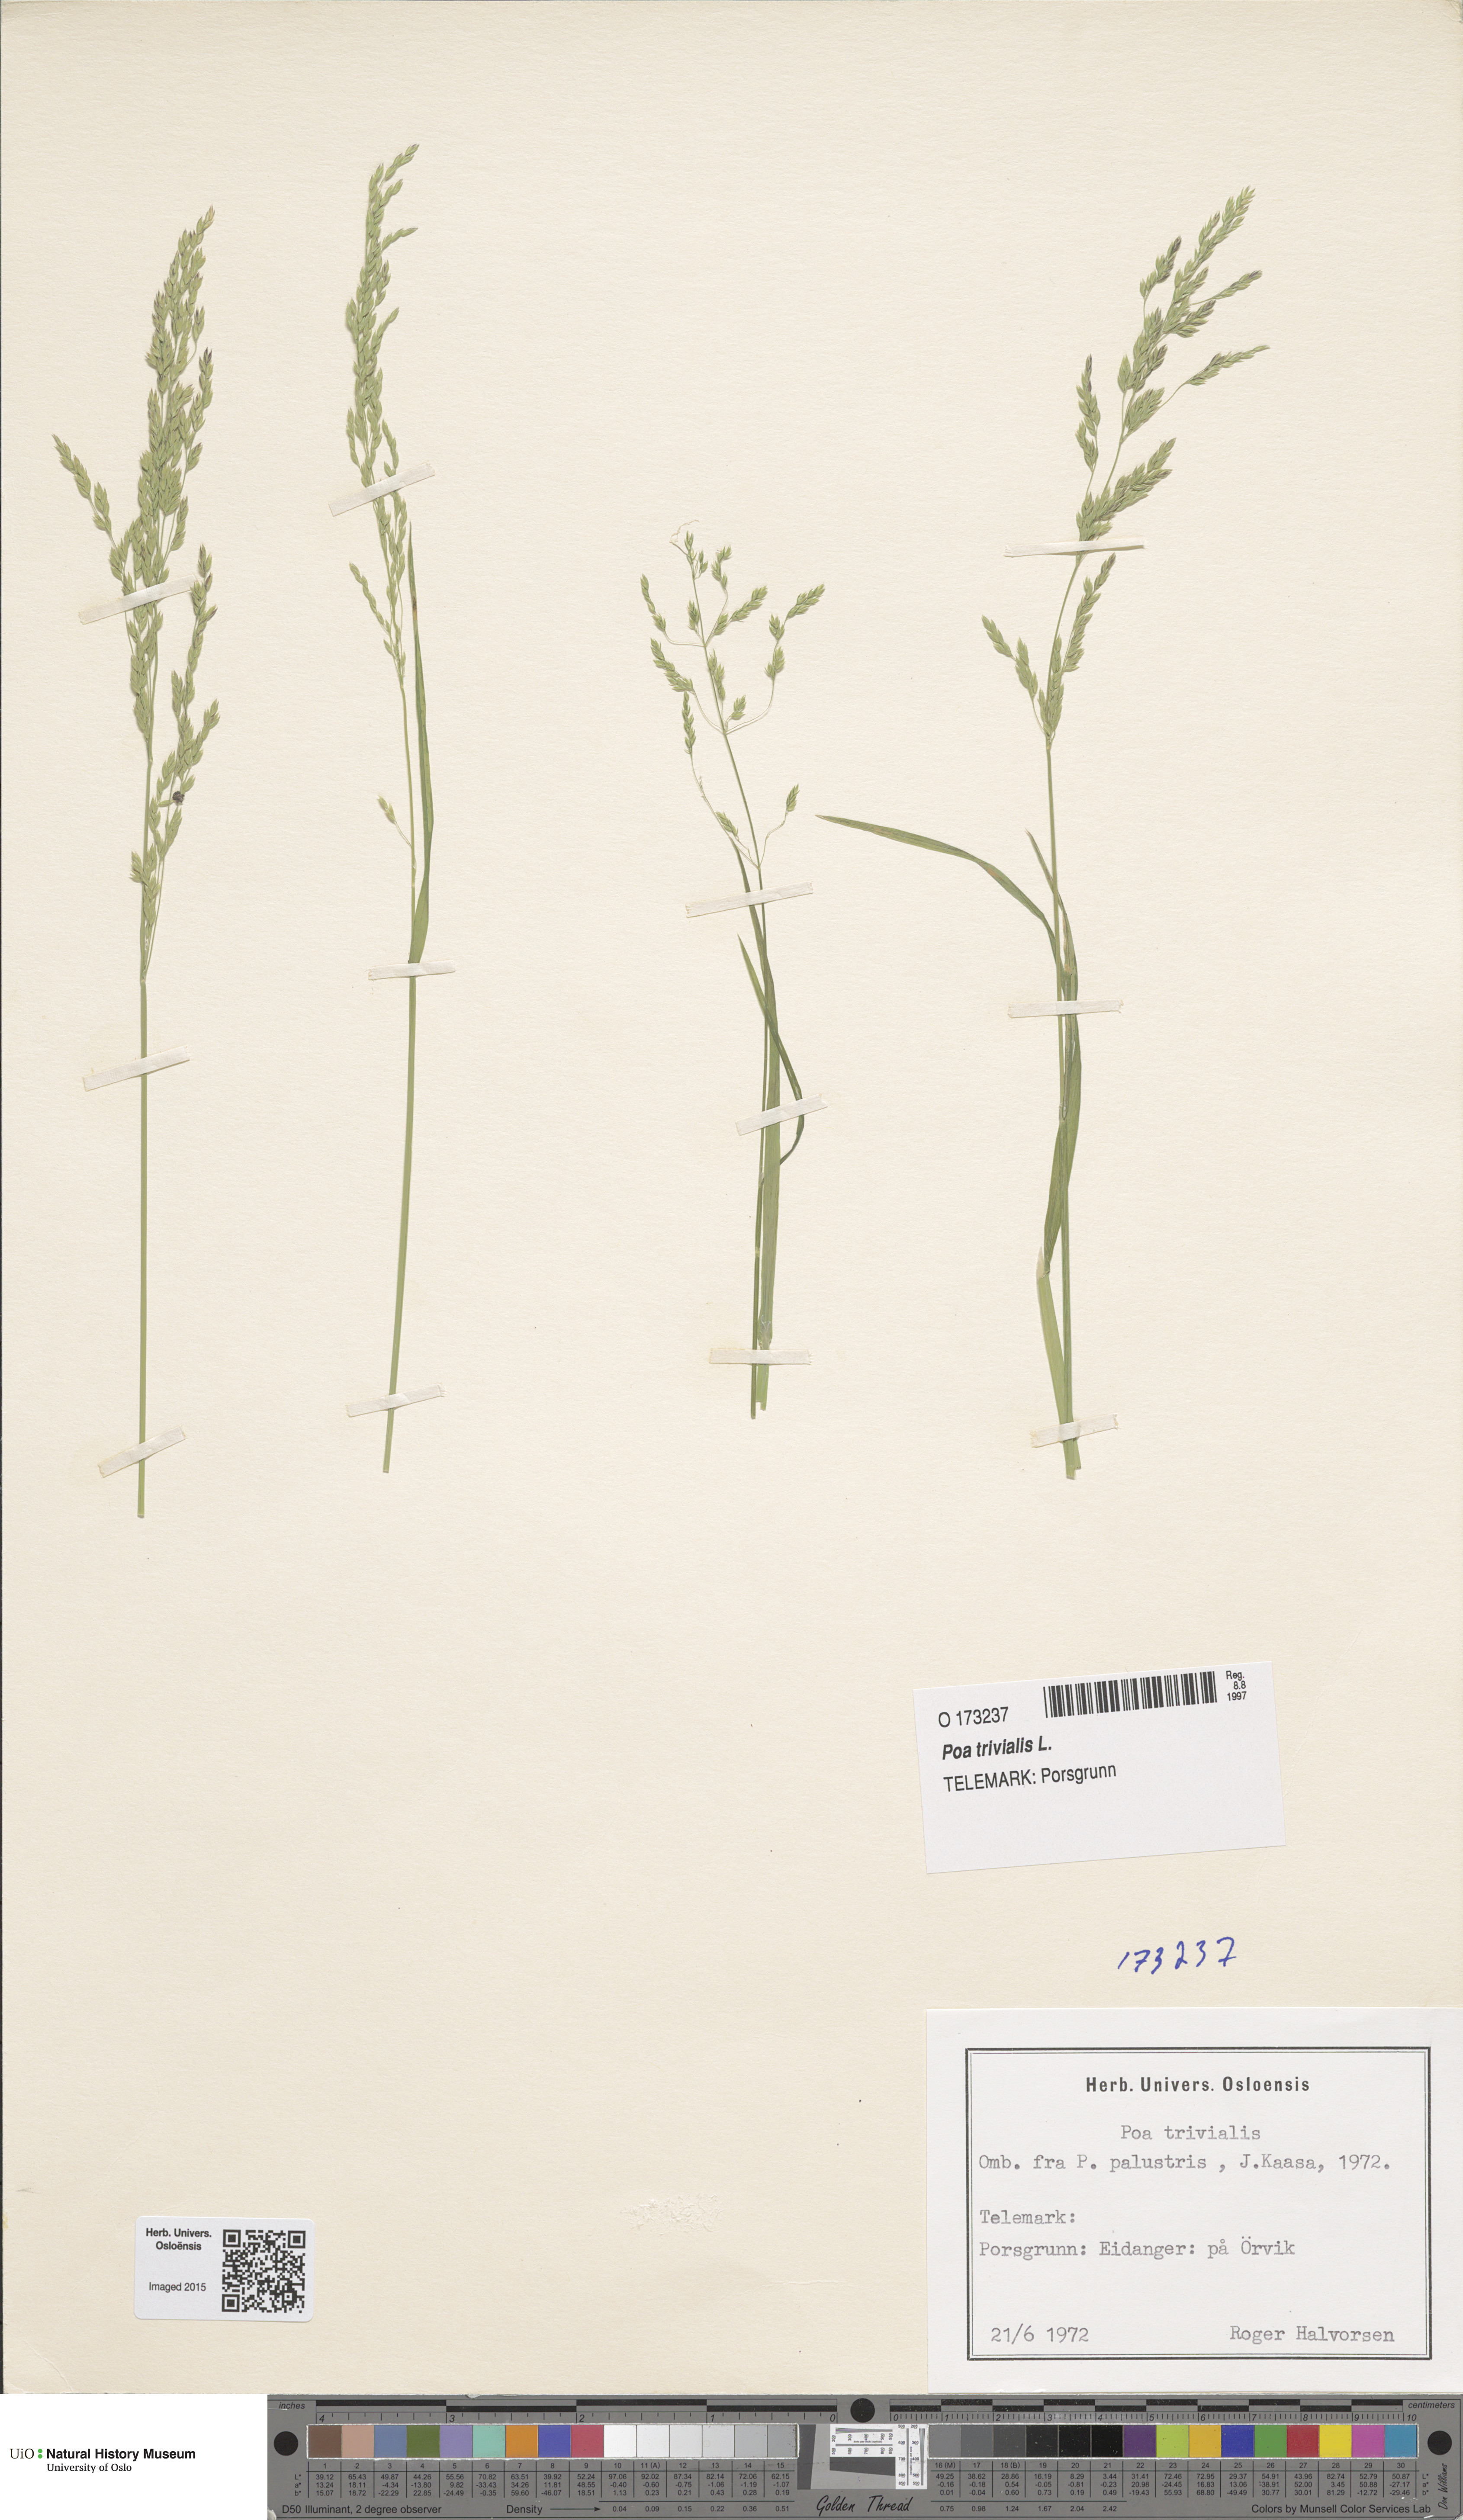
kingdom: Plantae
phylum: Tracheophyta
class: Liliopsida
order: Poales
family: Poaceae
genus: Poa
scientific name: Poa trivialis
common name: Rough bluegrass
